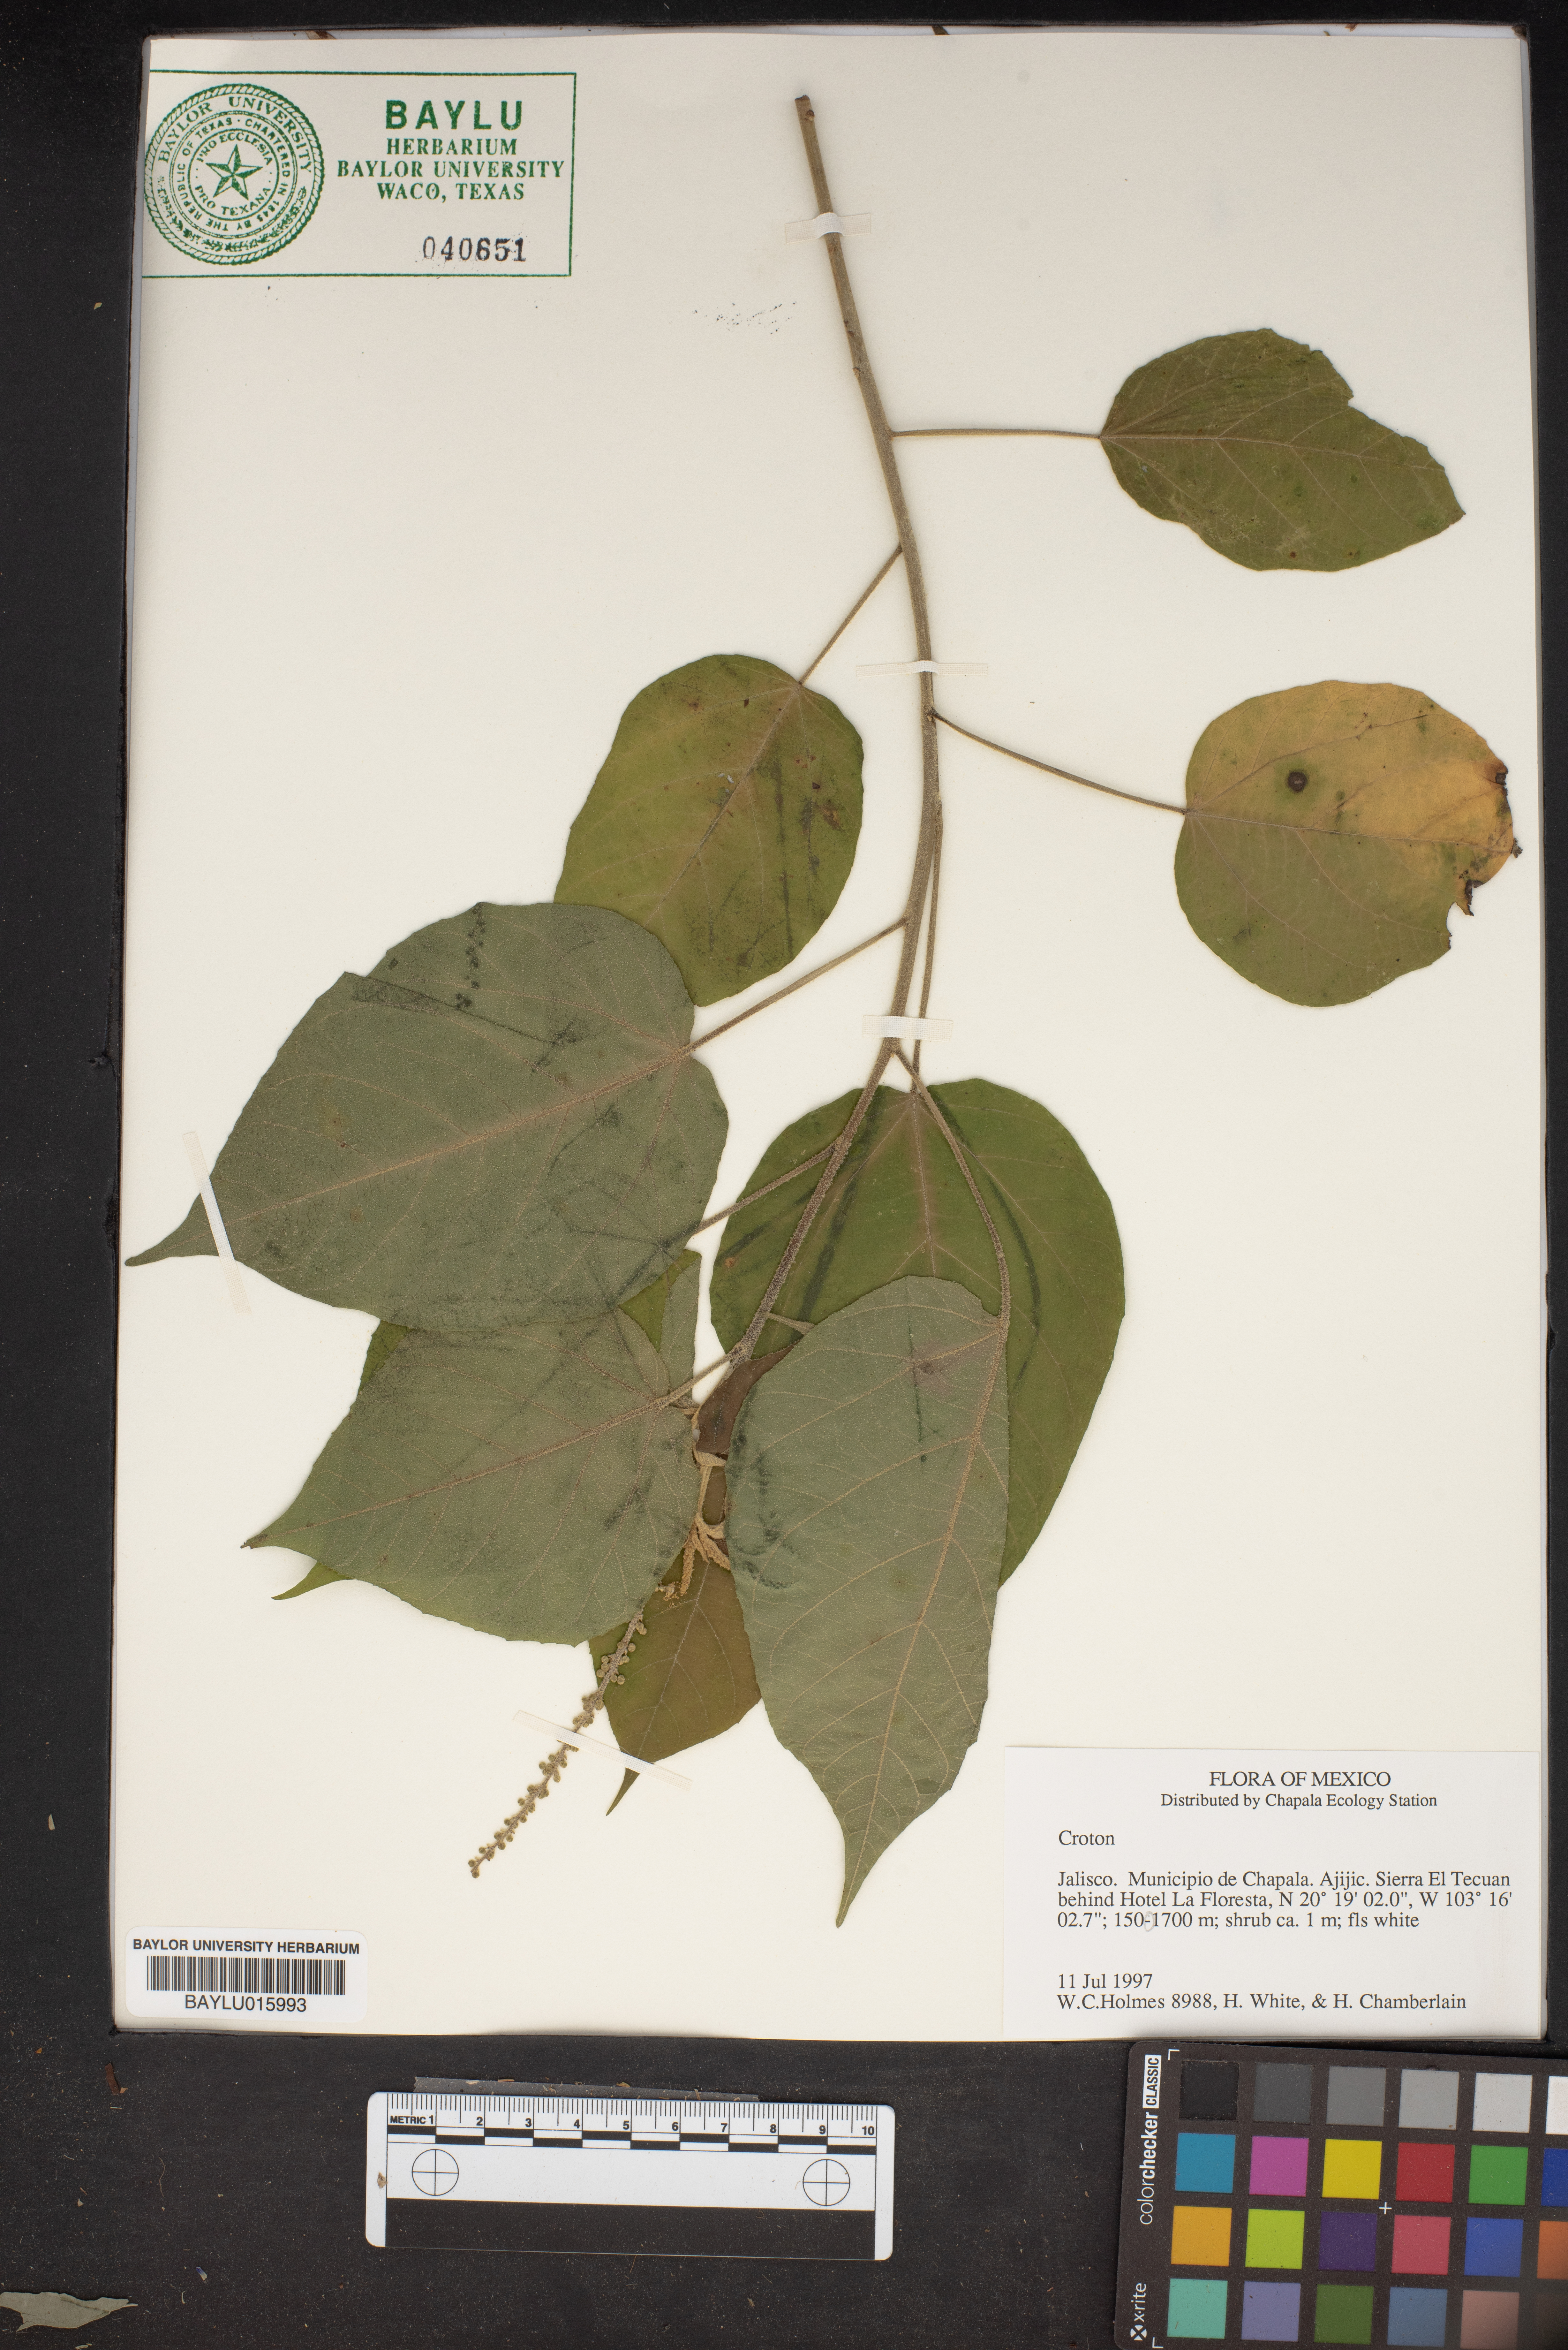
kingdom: Plantae
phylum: Tracheophyta
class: Magnoliopsida
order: Malpighiales
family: Euphorbiaceae
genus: Croton
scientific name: Croton
